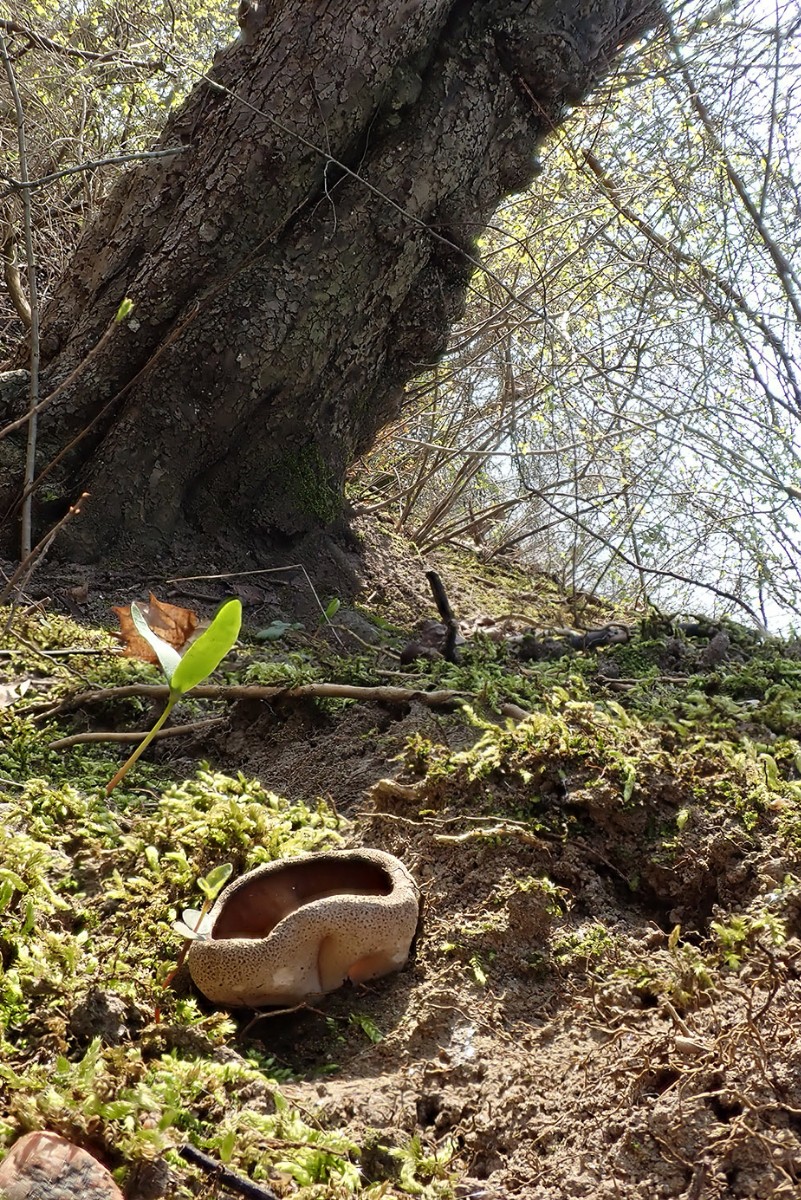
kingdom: Fungi
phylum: Ascomycota
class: Pezizomycetes
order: Pezizales
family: Morchellaceae
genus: Disciotis
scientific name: Disciotis venosa
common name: klor-bægermorkel
